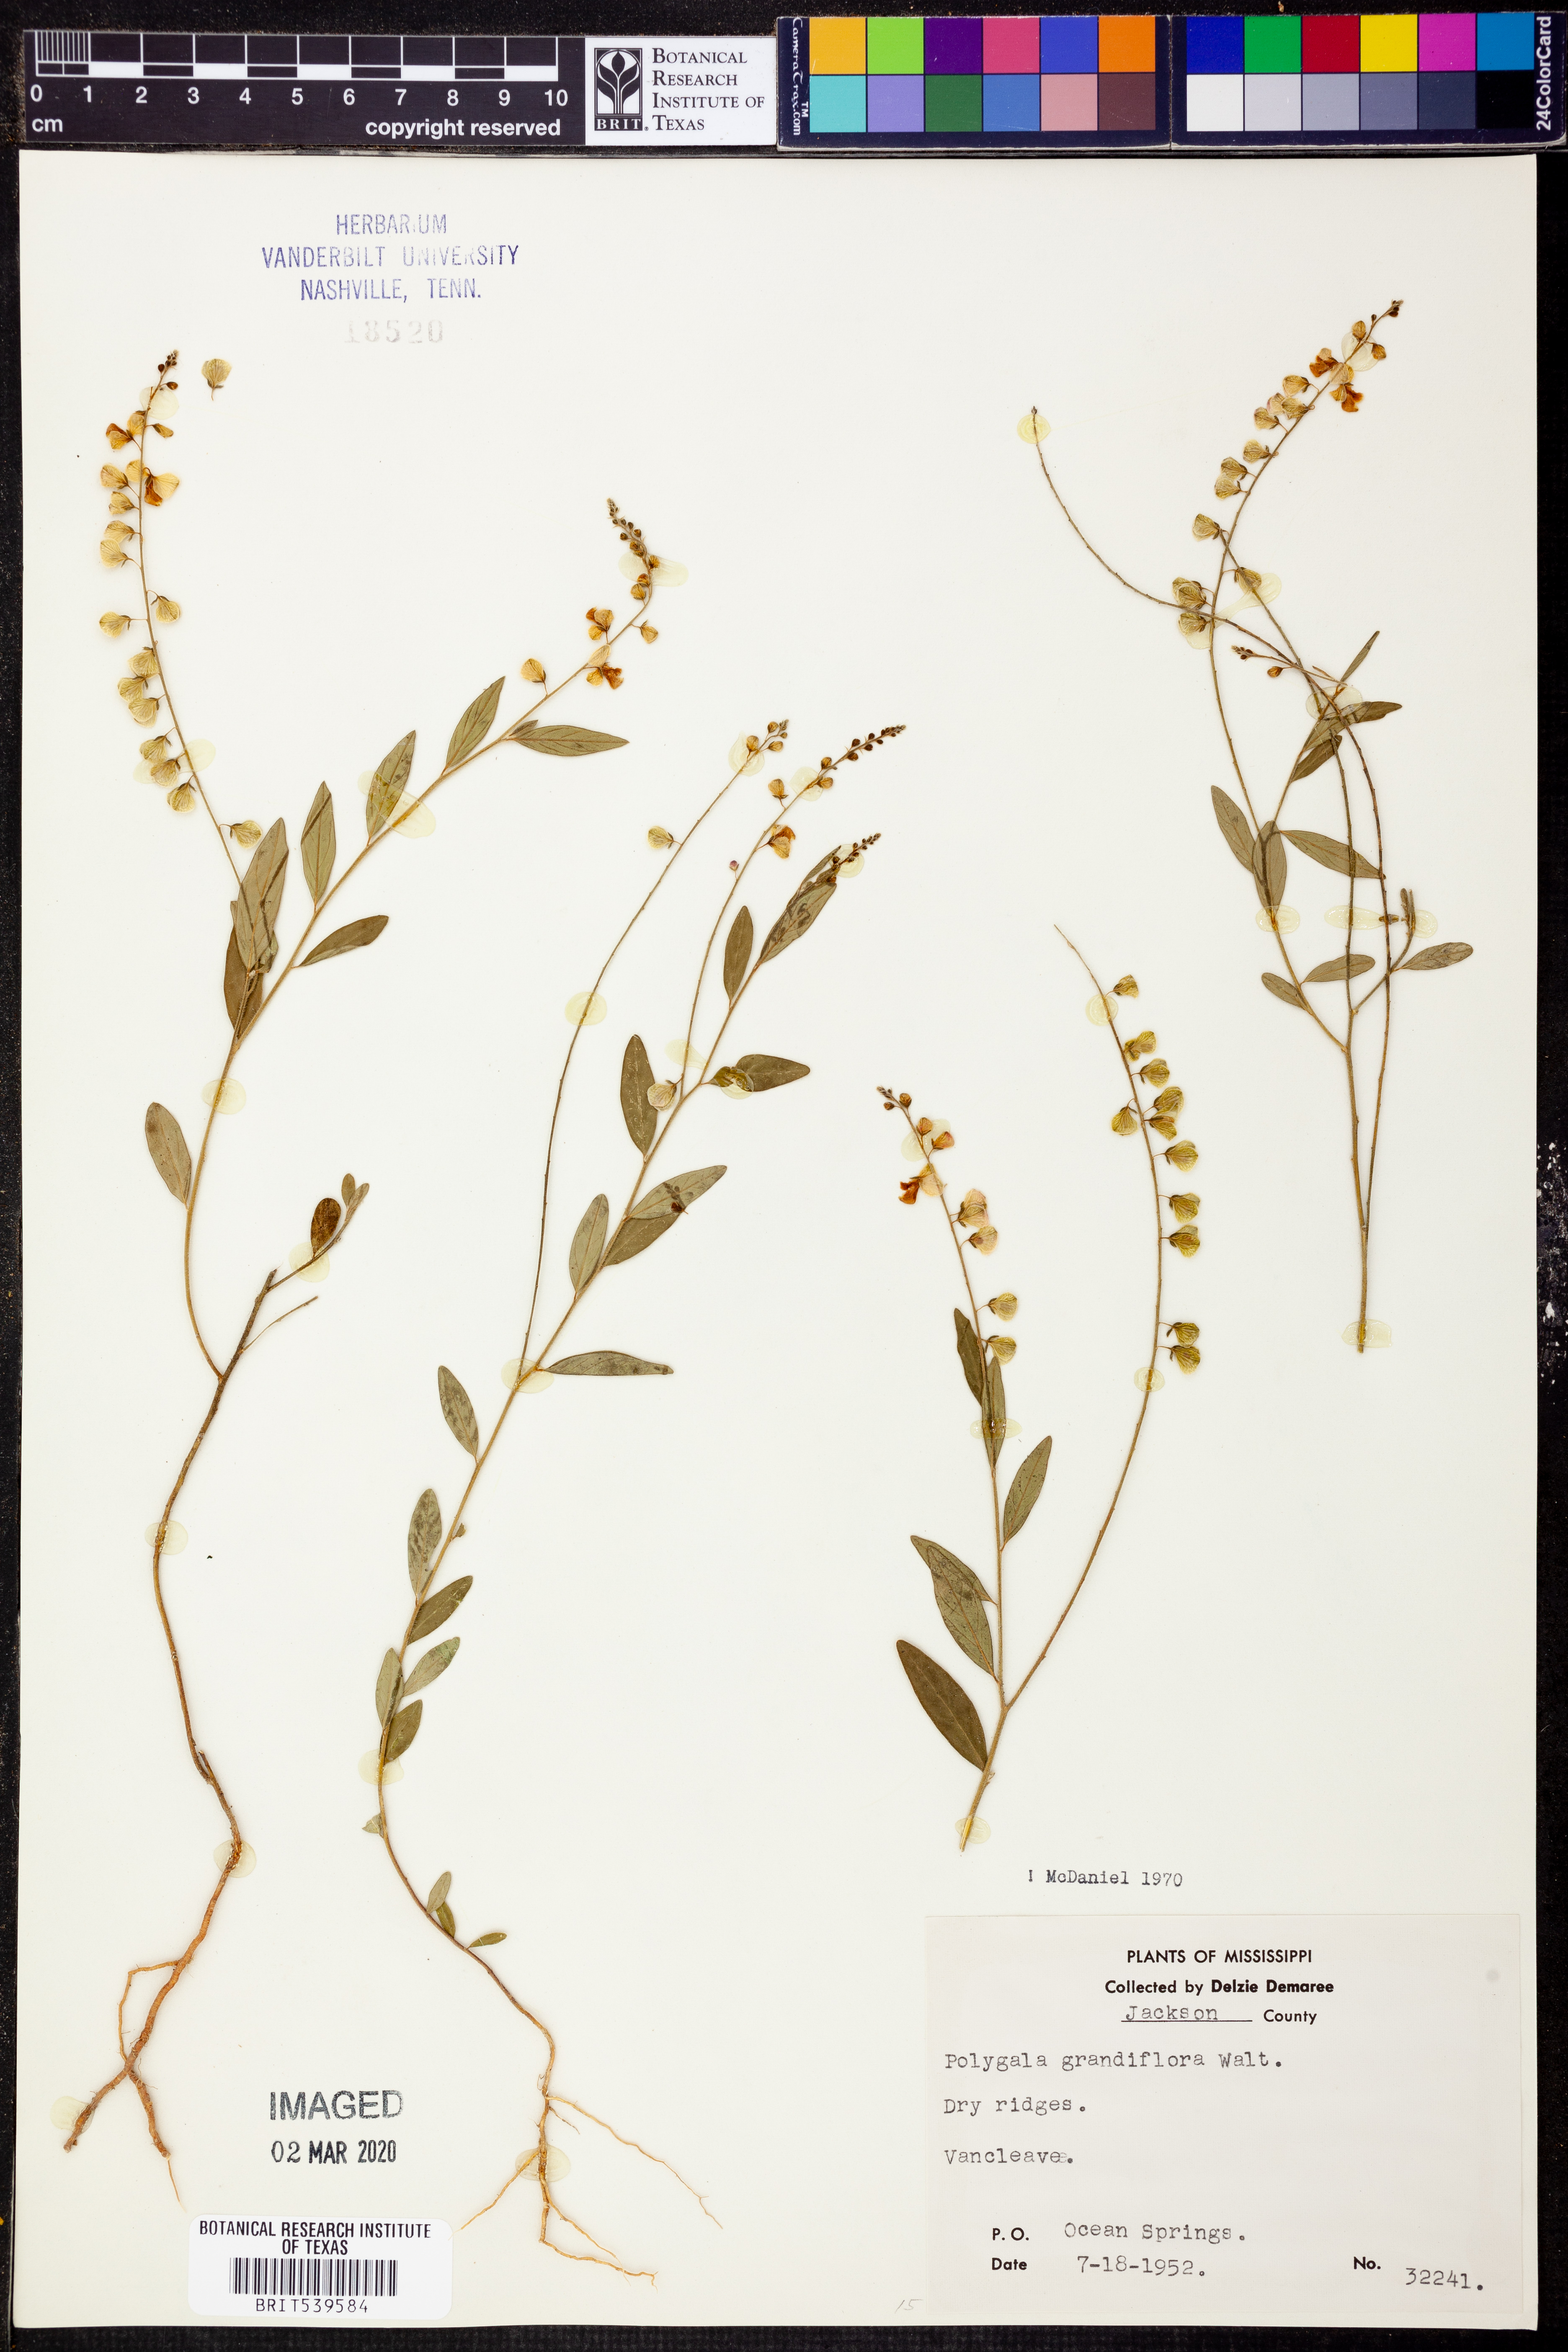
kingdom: Plantae
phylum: Tracheophyta
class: Magnoliopsida
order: Fabales
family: Polygalaceae
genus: Asemeia
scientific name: Asemeia grandiflora
